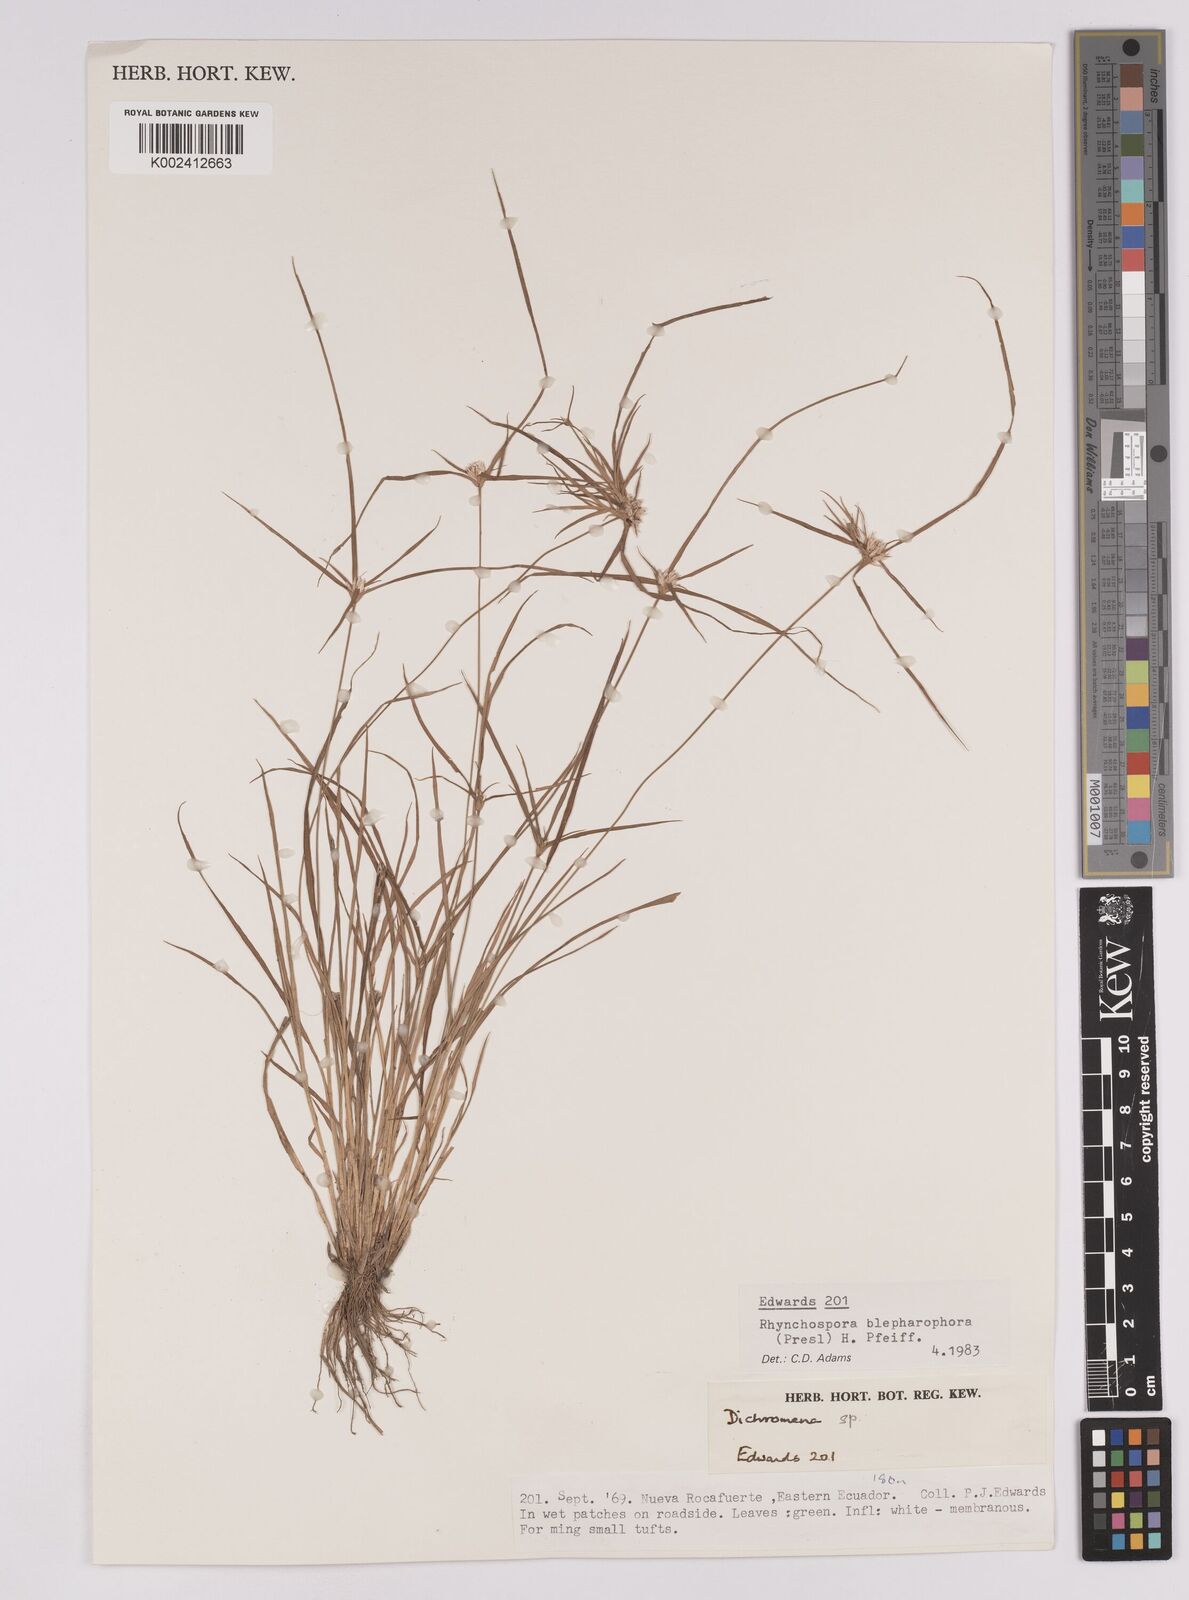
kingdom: Plantae
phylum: Tracheophyta
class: Liliopsida
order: Poales
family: Cyperaceae
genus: Rhynchospora
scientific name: Rhynchospora blepharophora
